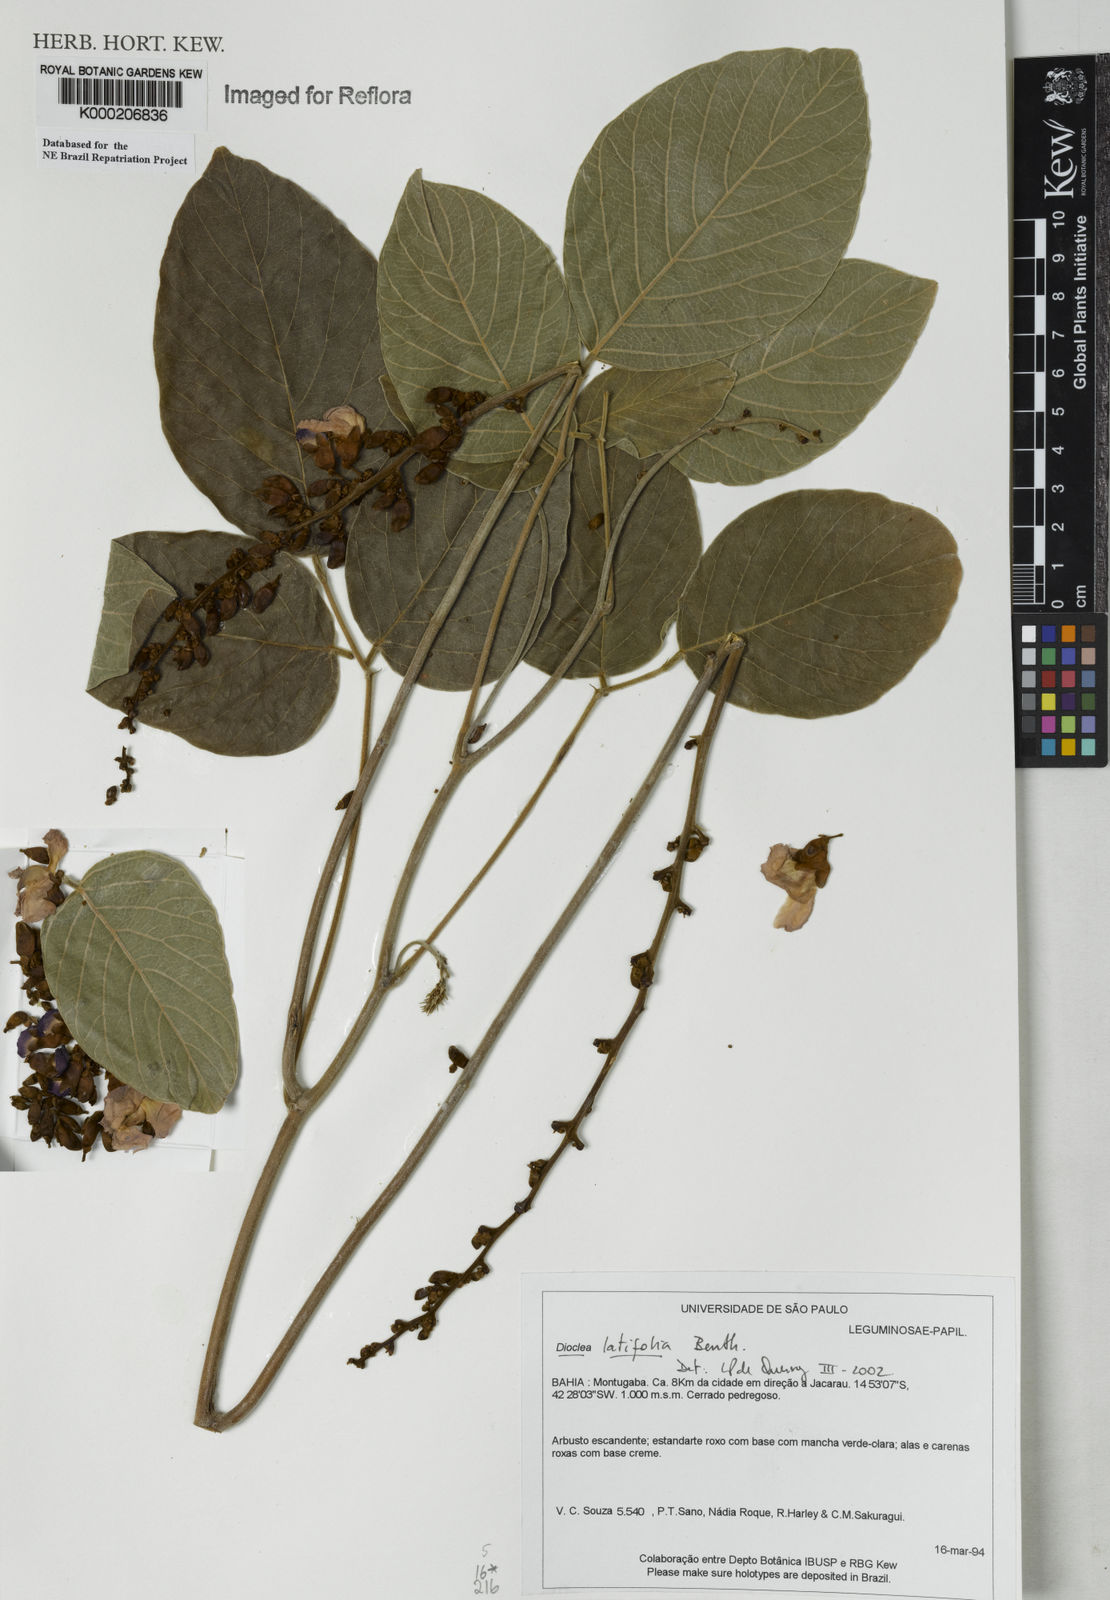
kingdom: Plantae
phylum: Tracheophyta
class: Magnoliopsida
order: Fabales
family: Fabaceae
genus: Macropsychanthus
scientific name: Macropsychanthus latifolius
